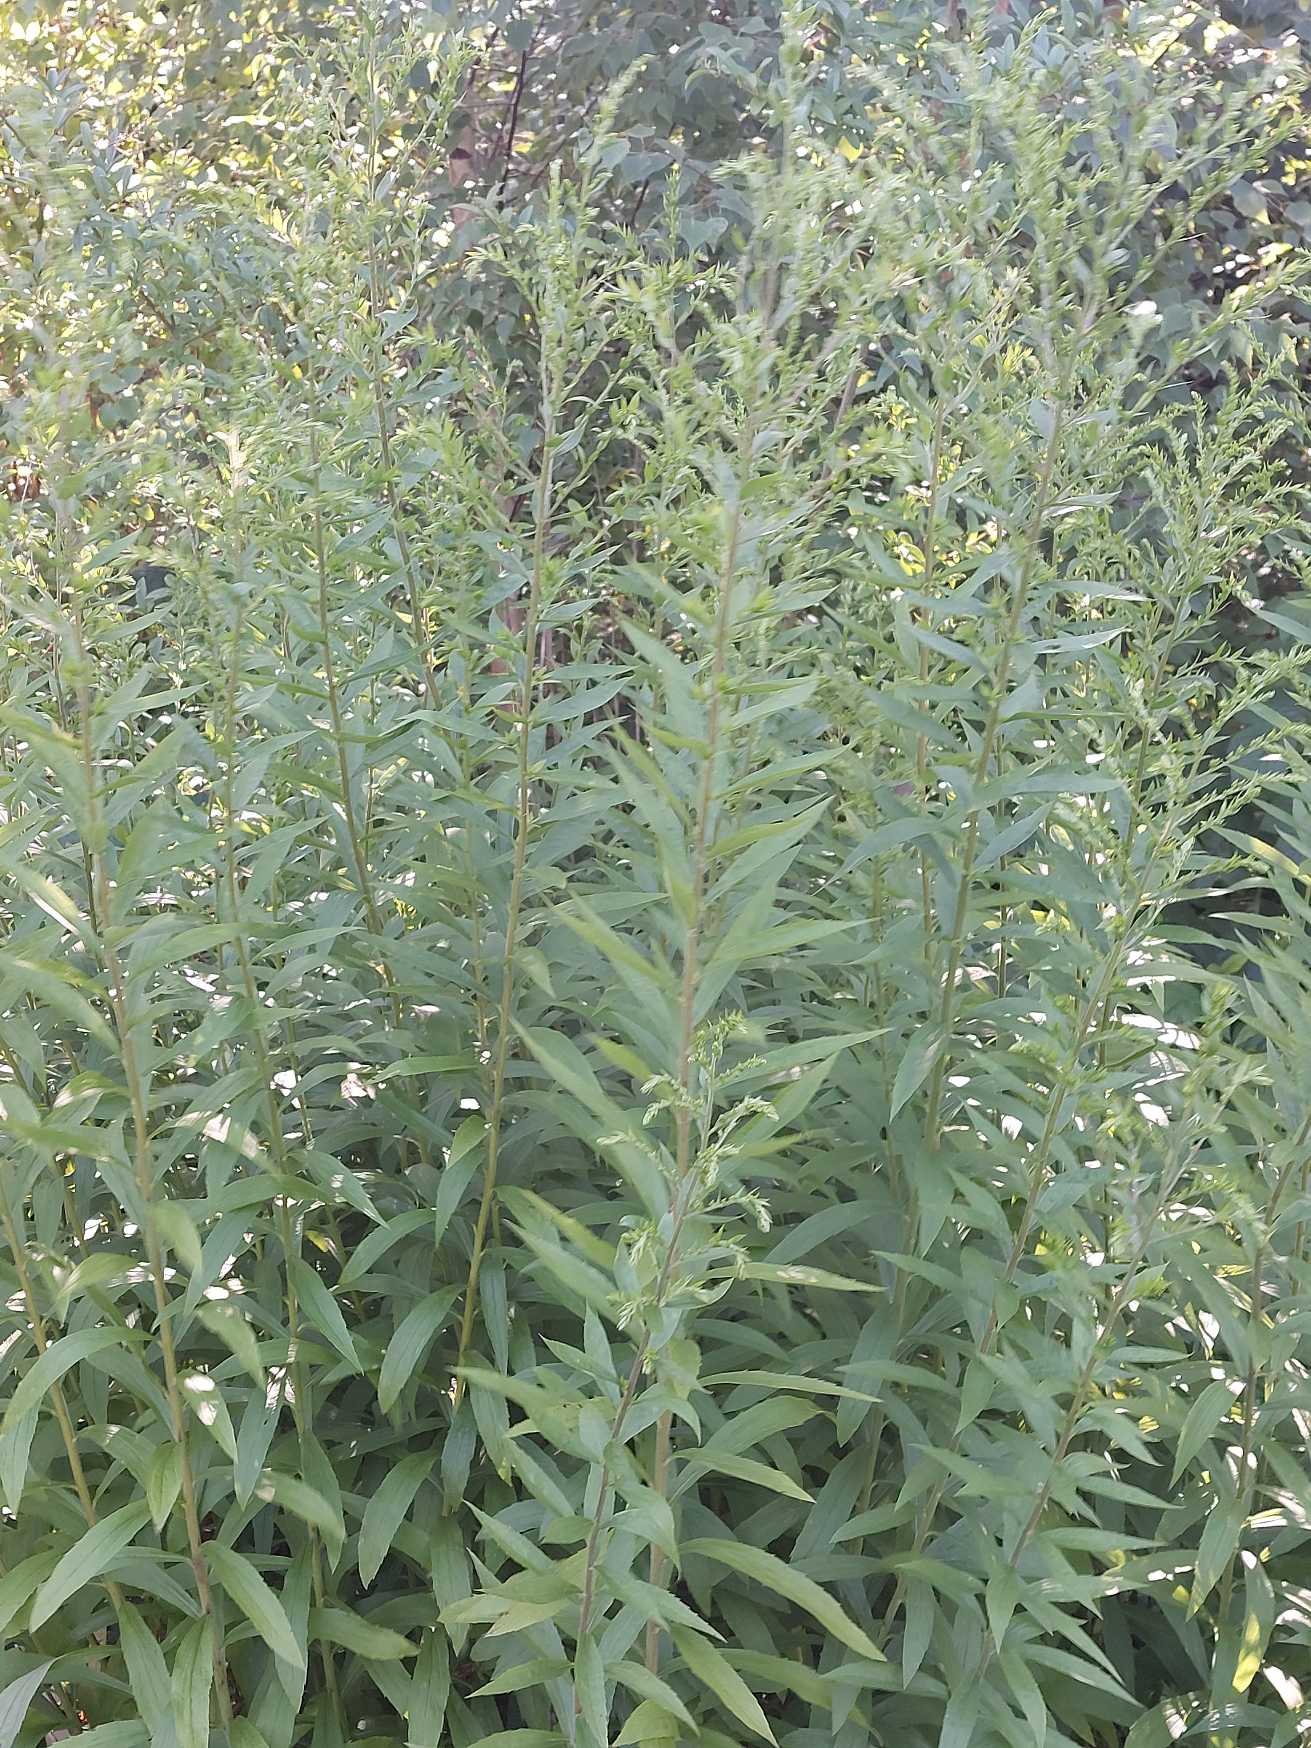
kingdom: Plantae
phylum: Tracheophyta
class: Magnoliopsida
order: Asterales
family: Asteraceae
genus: Solidago
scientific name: Solidago
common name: Gyldenrisslægten
